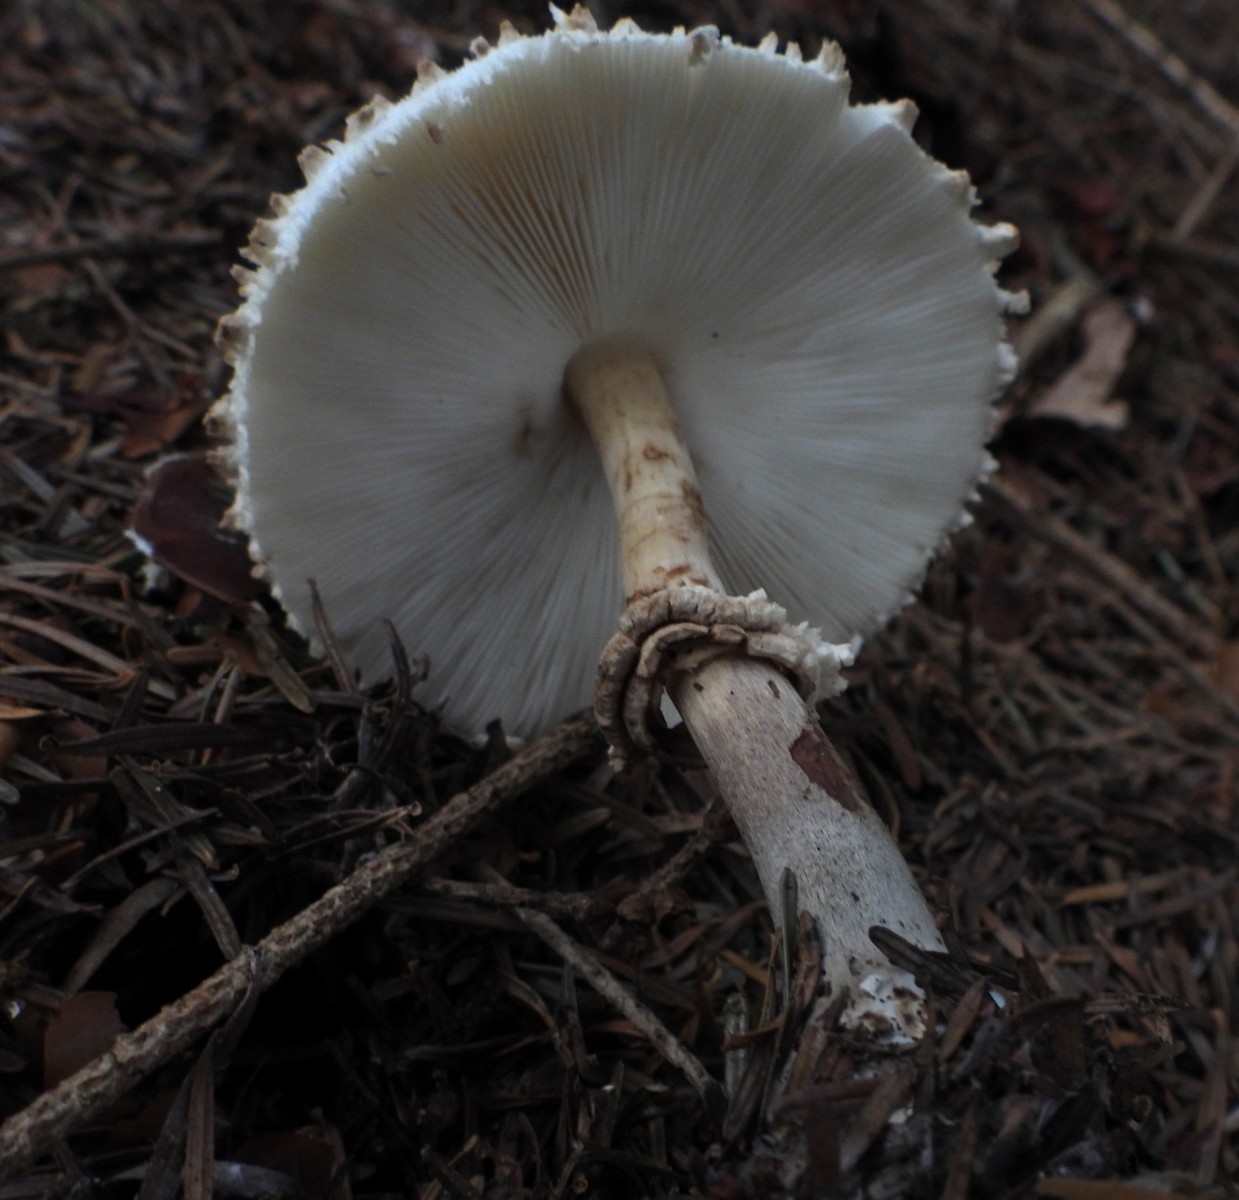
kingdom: Fungi
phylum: Basidiomycota
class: Agaricomycetes
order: Agaricales
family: Agaricaceae
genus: Leucoagaricus
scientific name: Leucoagaricus nympharum
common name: gran-silkehat
